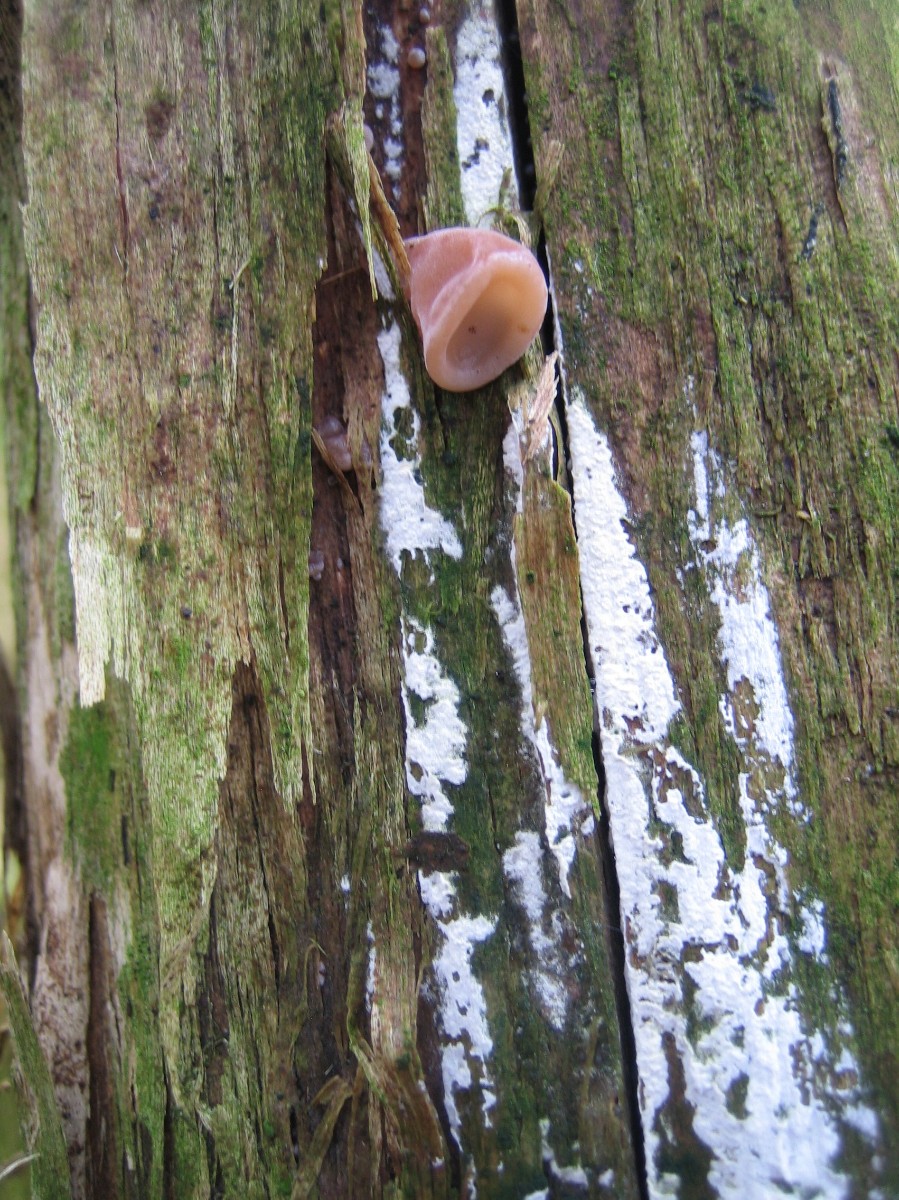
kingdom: Fungi
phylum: Basidiomycota
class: Agaricomycetes
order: Auriculariales
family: Auriculariaceae
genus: Auricularia
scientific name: Auricularia auricula-judae
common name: almindelig judasøre
